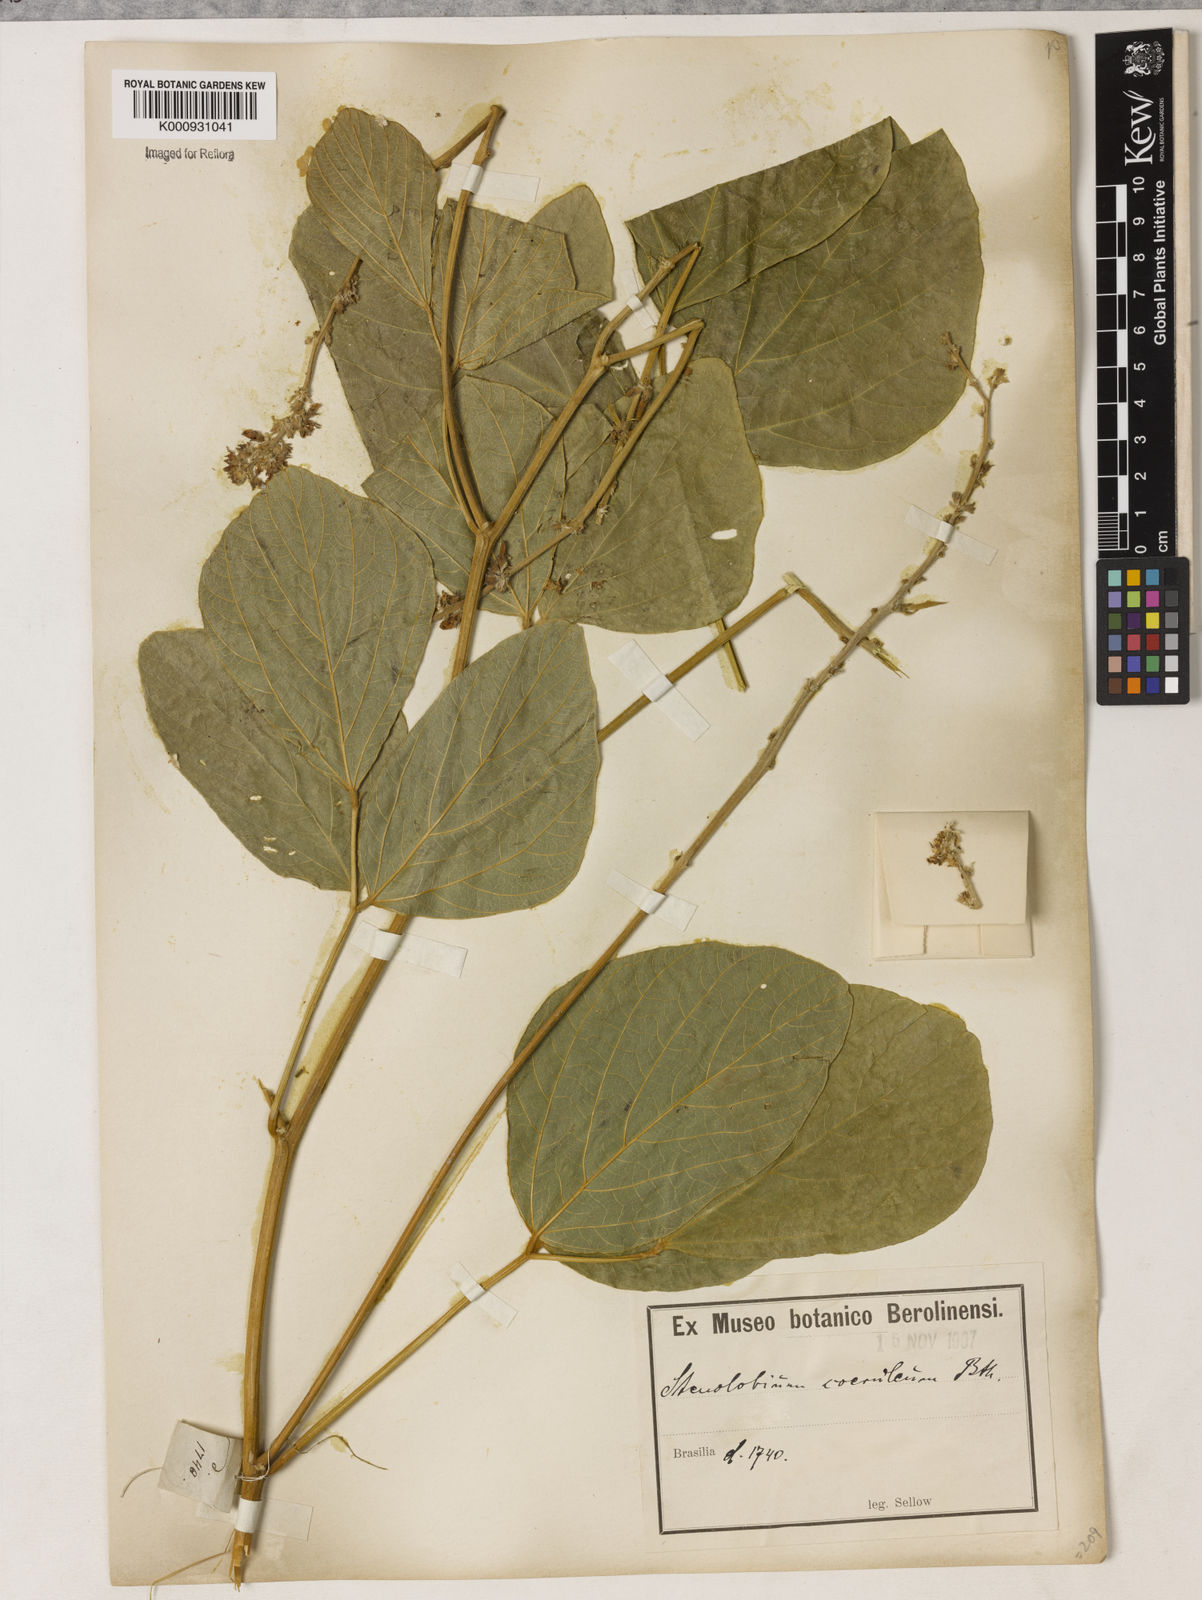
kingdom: Plantae
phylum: Tracheophyta
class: Magnoliopsida
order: Fabales
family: Fabaceae
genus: Calopogonium
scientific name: Calopogonium caeruleum
